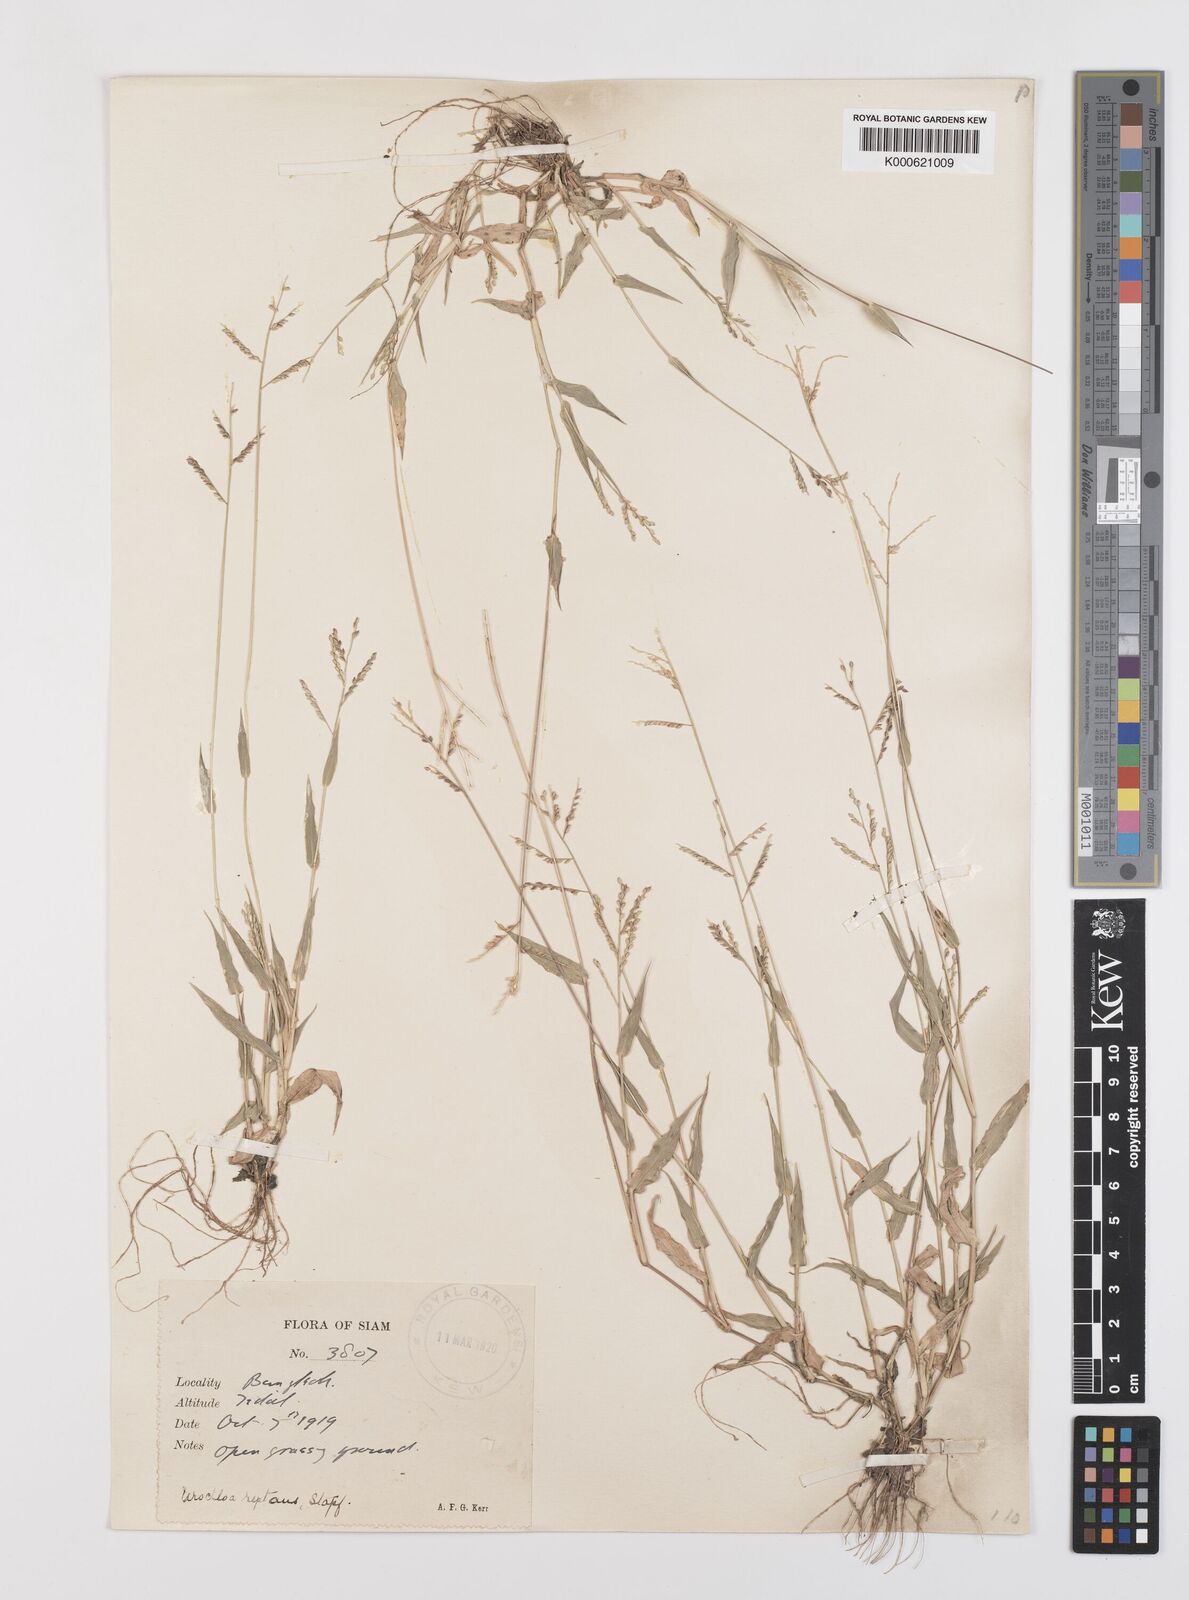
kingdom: Plantae
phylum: Tracheophyta
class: Liliopsida
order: Poales
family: Poaceae
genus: Urochloa
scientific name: Urochloa reptans
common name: Sprawling signalgrass
